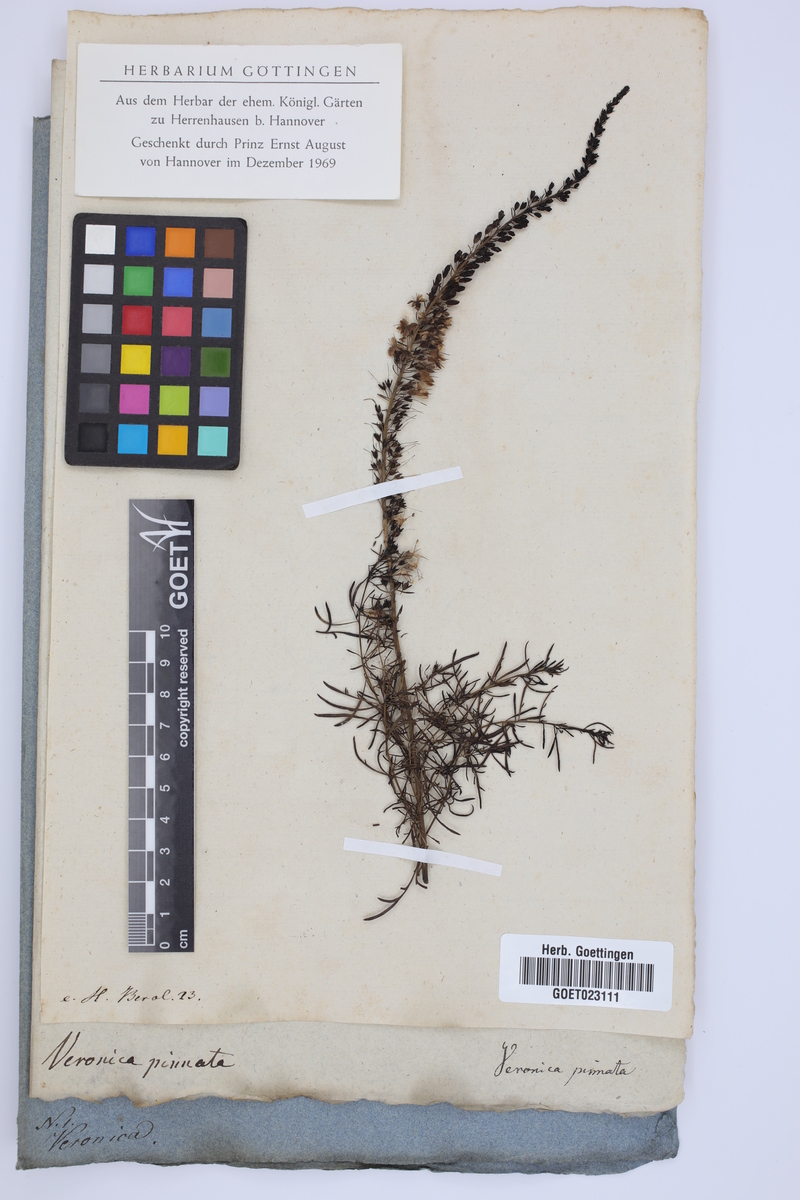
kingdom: Plantae
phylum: Tracheophyta
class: Magnoliopsida
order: Lamiales
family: Plantaginaceae
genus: Veronica
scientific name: Veronica pinnata
